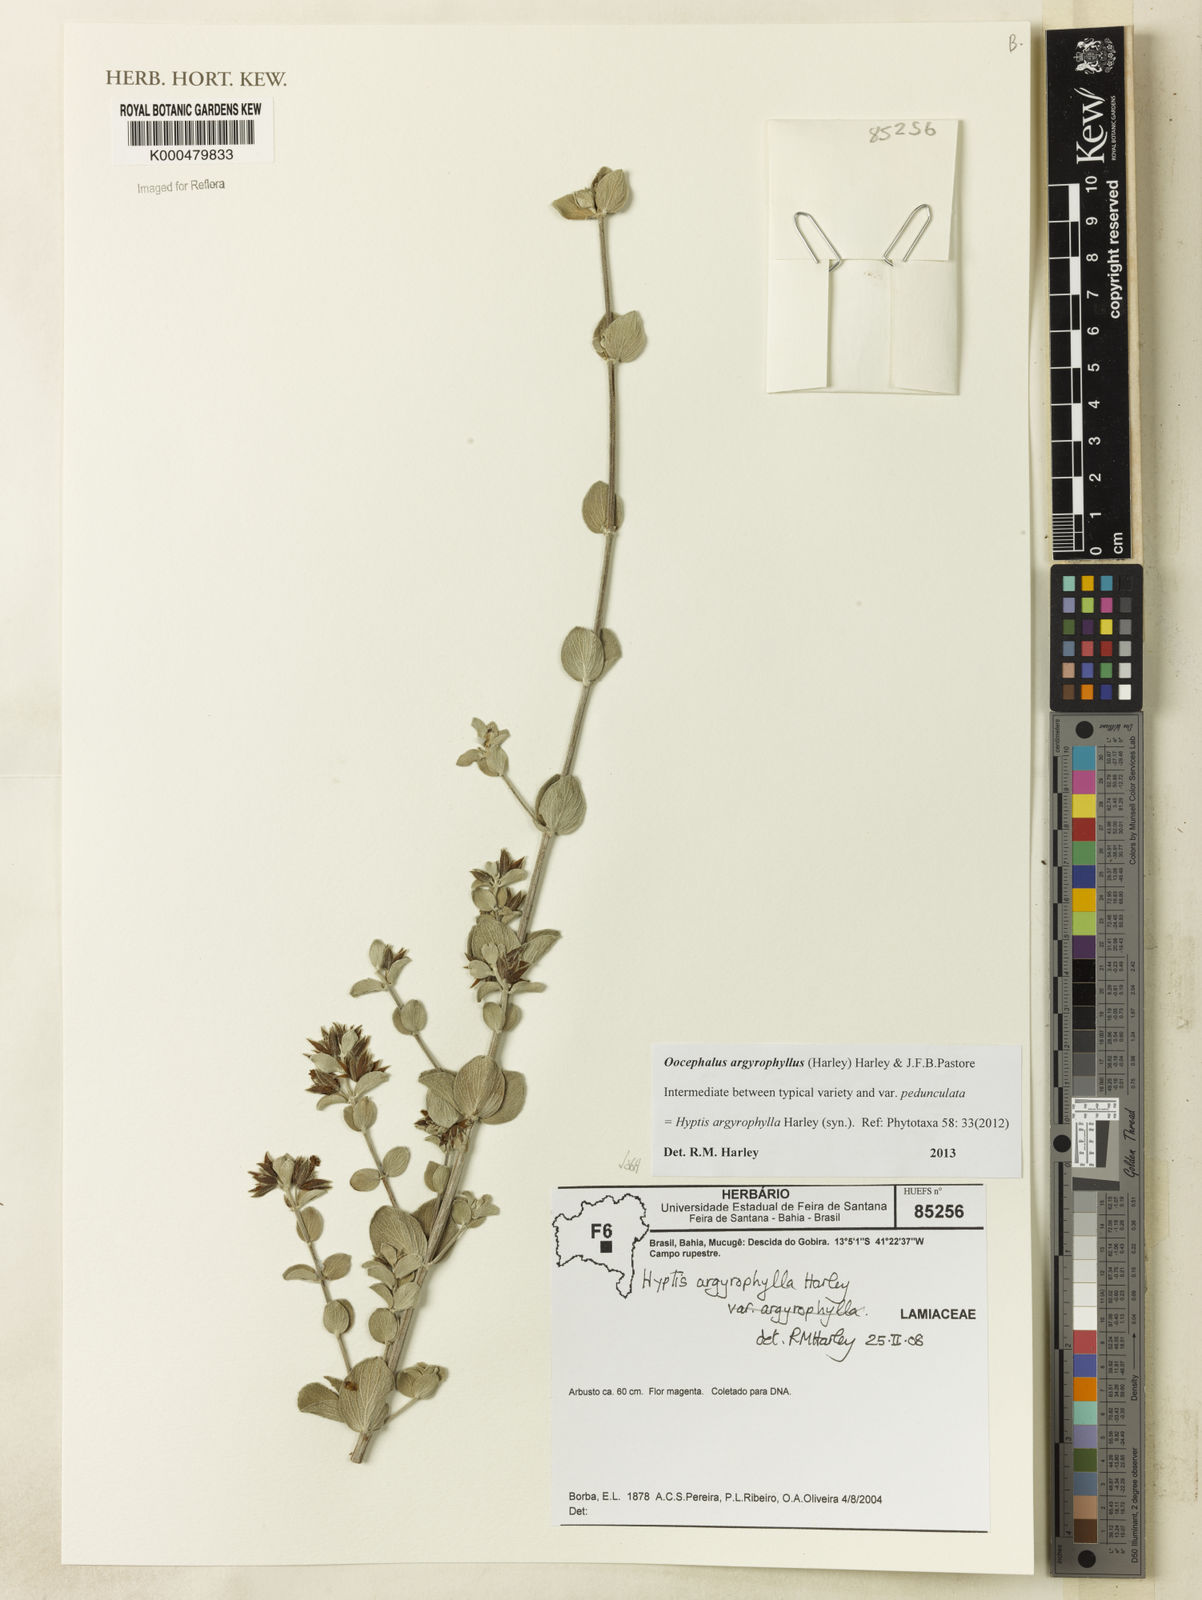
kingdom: Plantae
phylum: Tracheophyta
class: Magnoliopsida
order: Lamiales
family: Lamiaceae
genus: Oocephalus
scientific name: Oocephalus argyrophyllus
